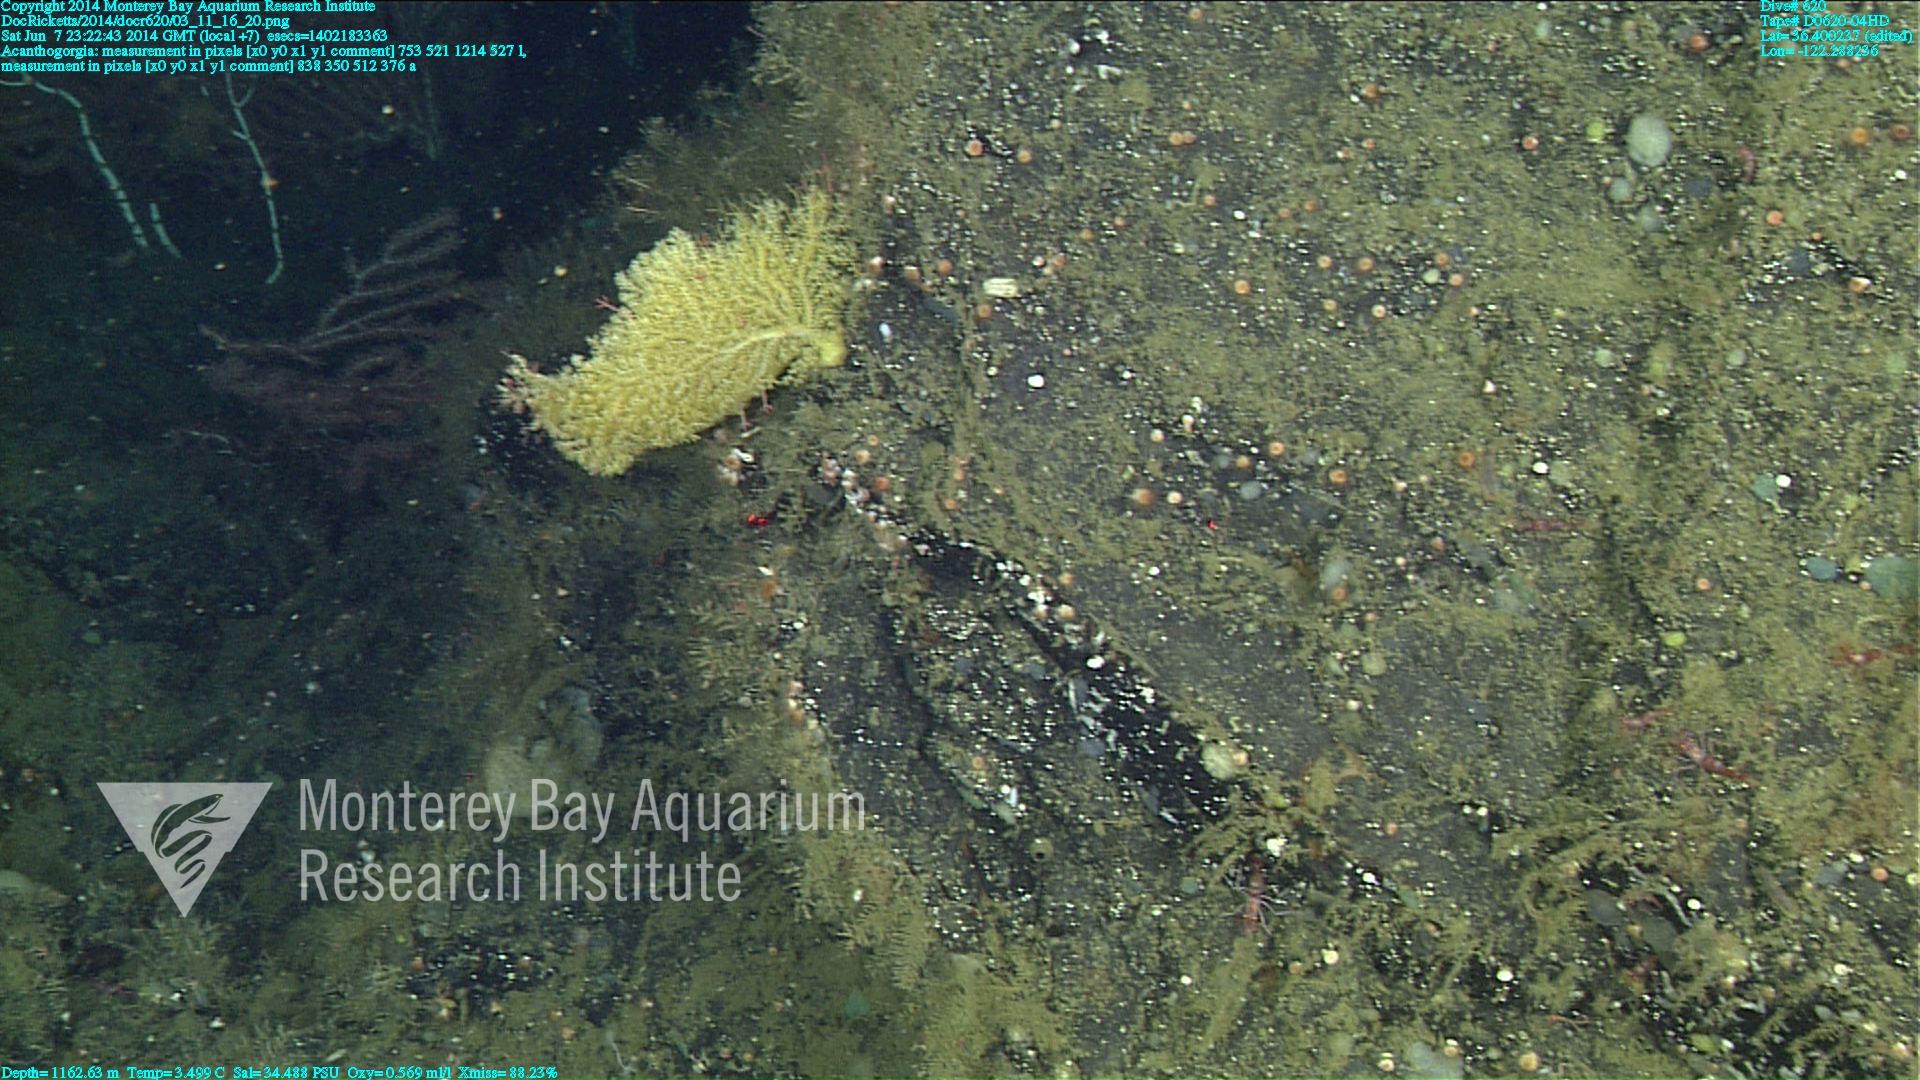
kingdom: Animalia
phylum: Cnidaria
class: Anthozoa
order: Malacalcyonacea
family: Paramuriceidae
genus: Acanthogorgia
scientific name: Acanthogorgia
